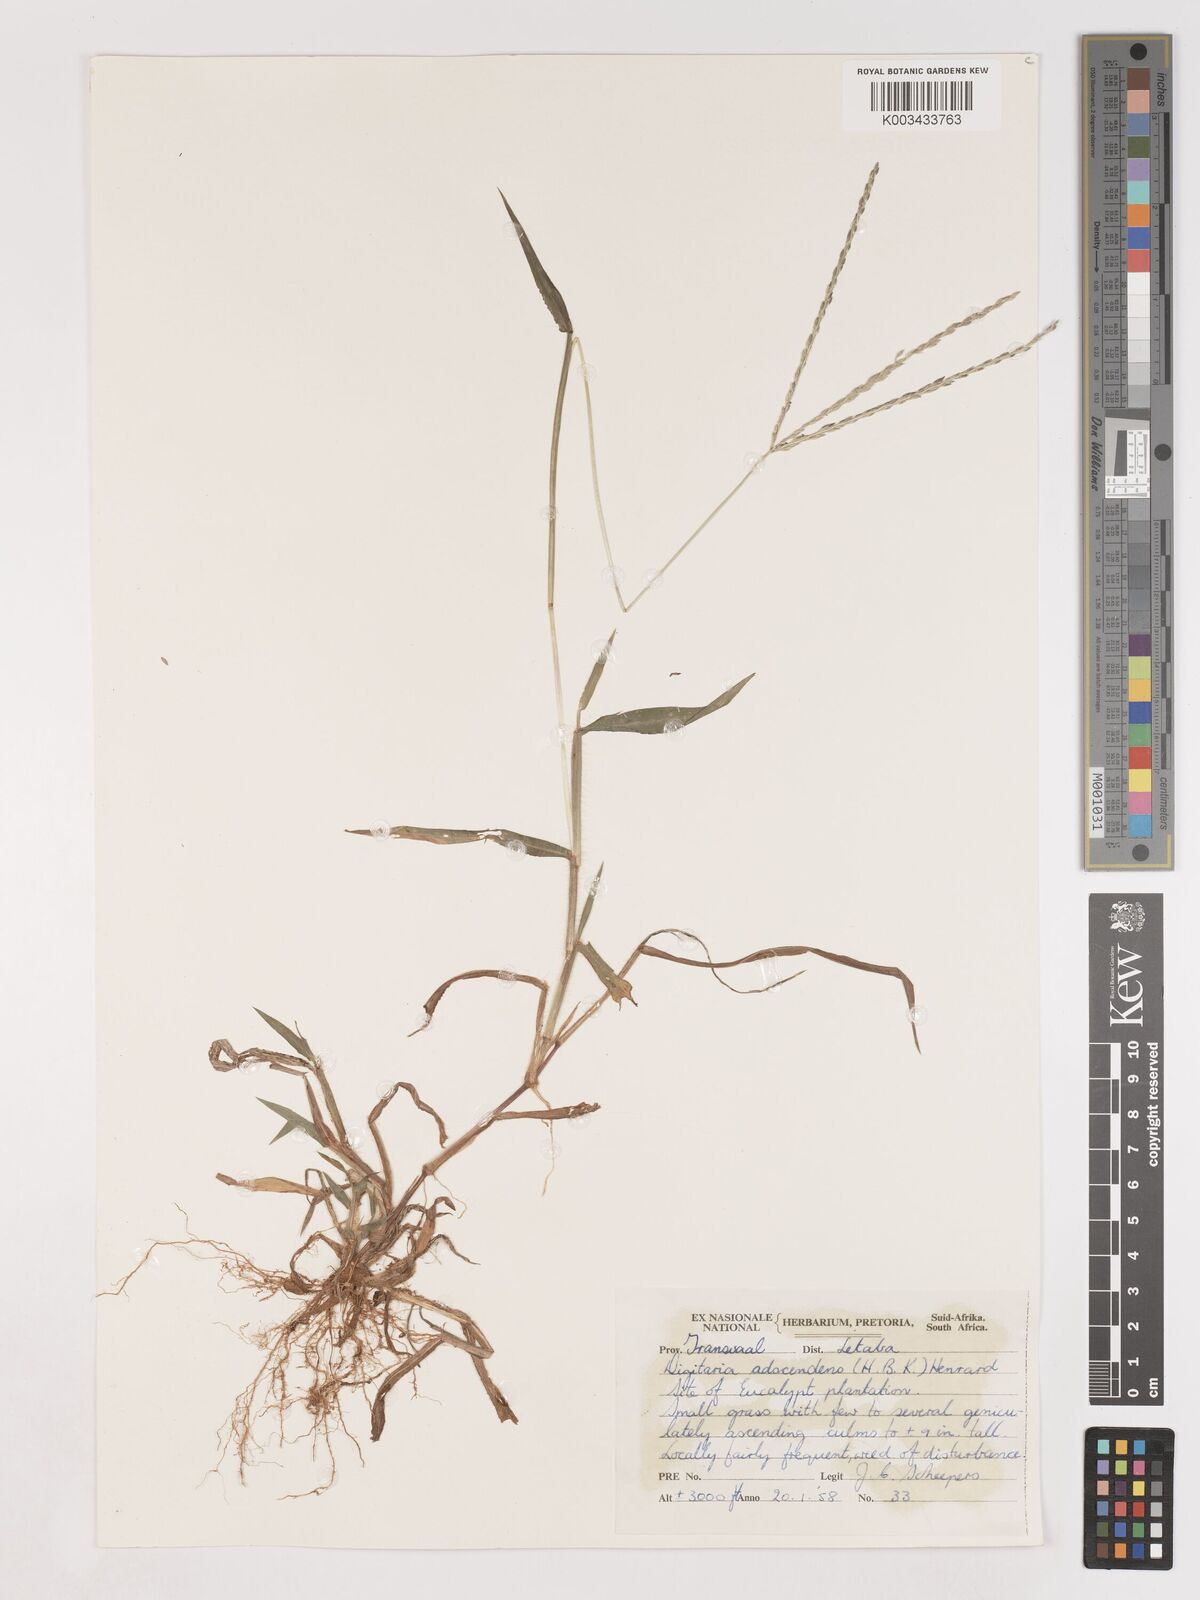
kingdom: Plantae
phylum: Tracheophyta
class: Liliopsida
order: Poales
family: Poaceae
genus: Digitaria
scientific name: Digitaria ciliaris
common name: Tropical finger-grass
